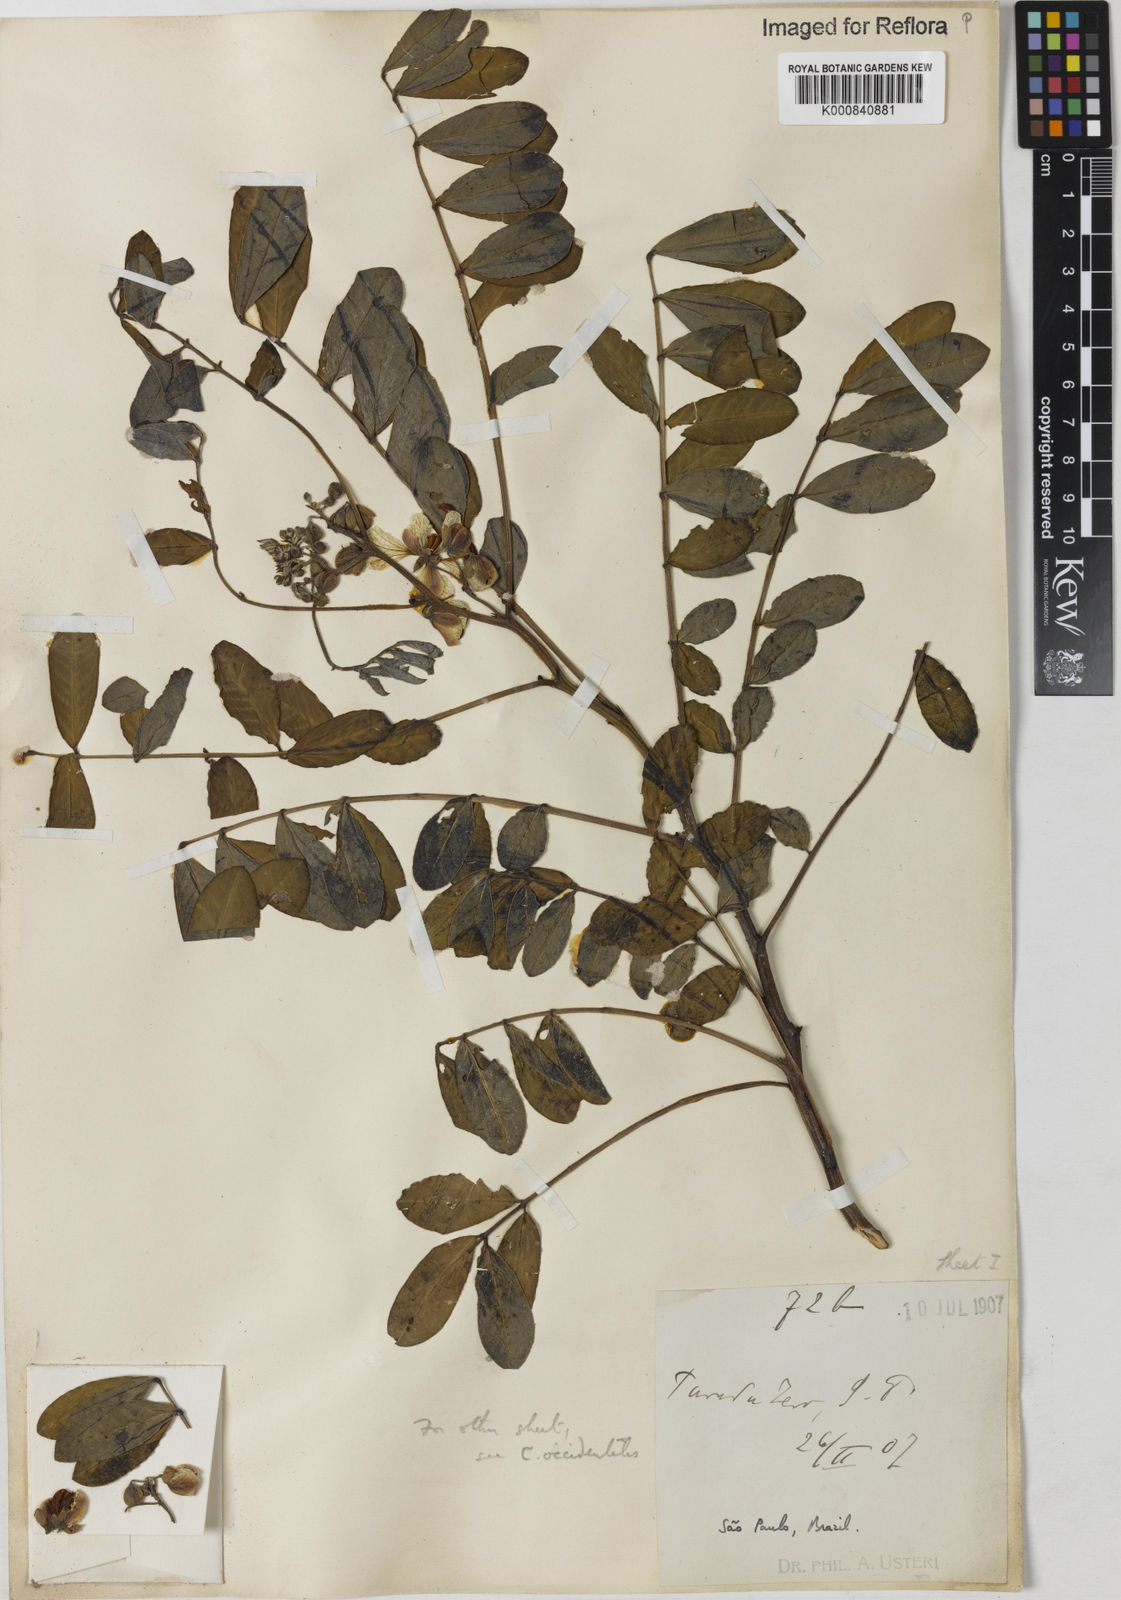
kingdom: Plantae
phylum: Tracheophyta
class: Magnoliopsida
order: Fabales
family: Fabaceae
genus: Senna
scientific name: Senna cernua
